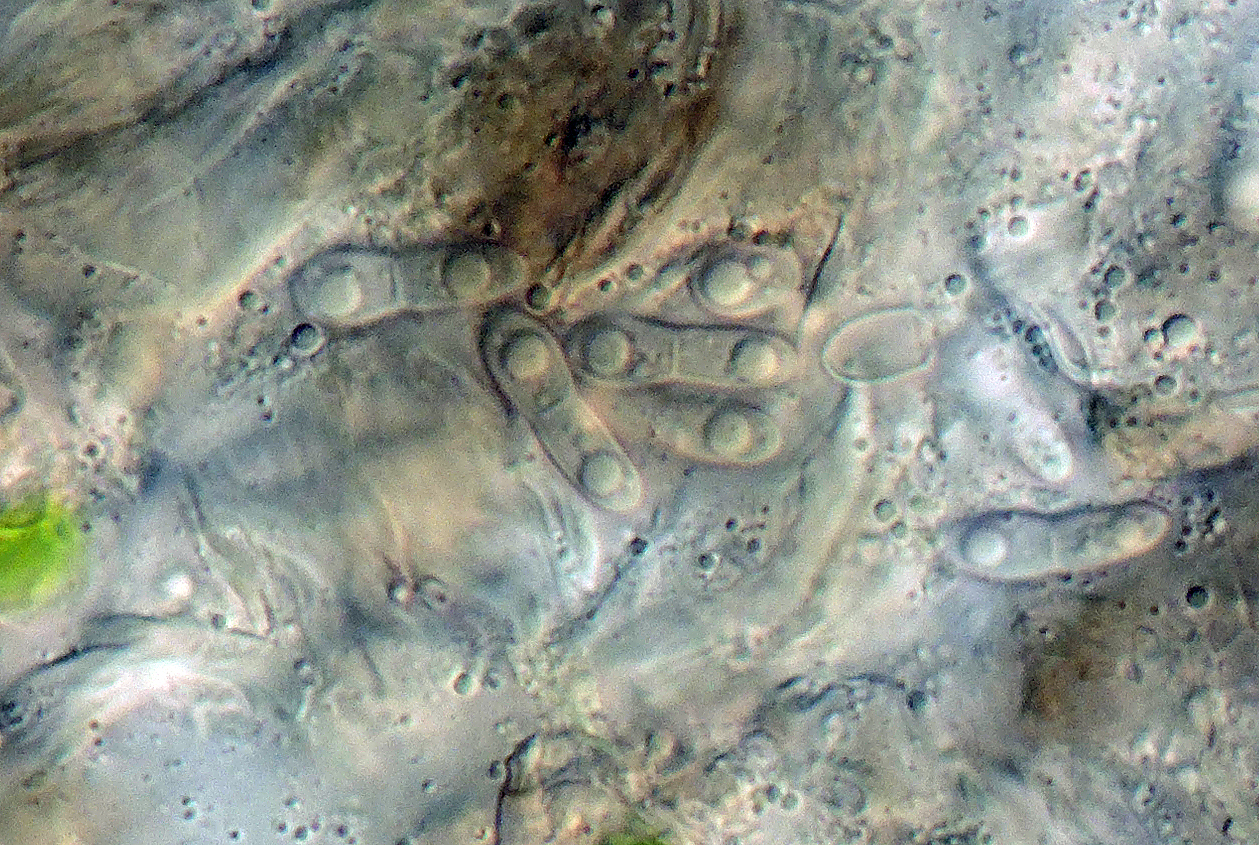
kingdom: Fungi
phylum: Ascomycota
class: Arthoniomycetes
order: Arthoniales
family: Arthoniaceae
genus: Bryostigma
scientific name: Bryostigma phaeophysciae
